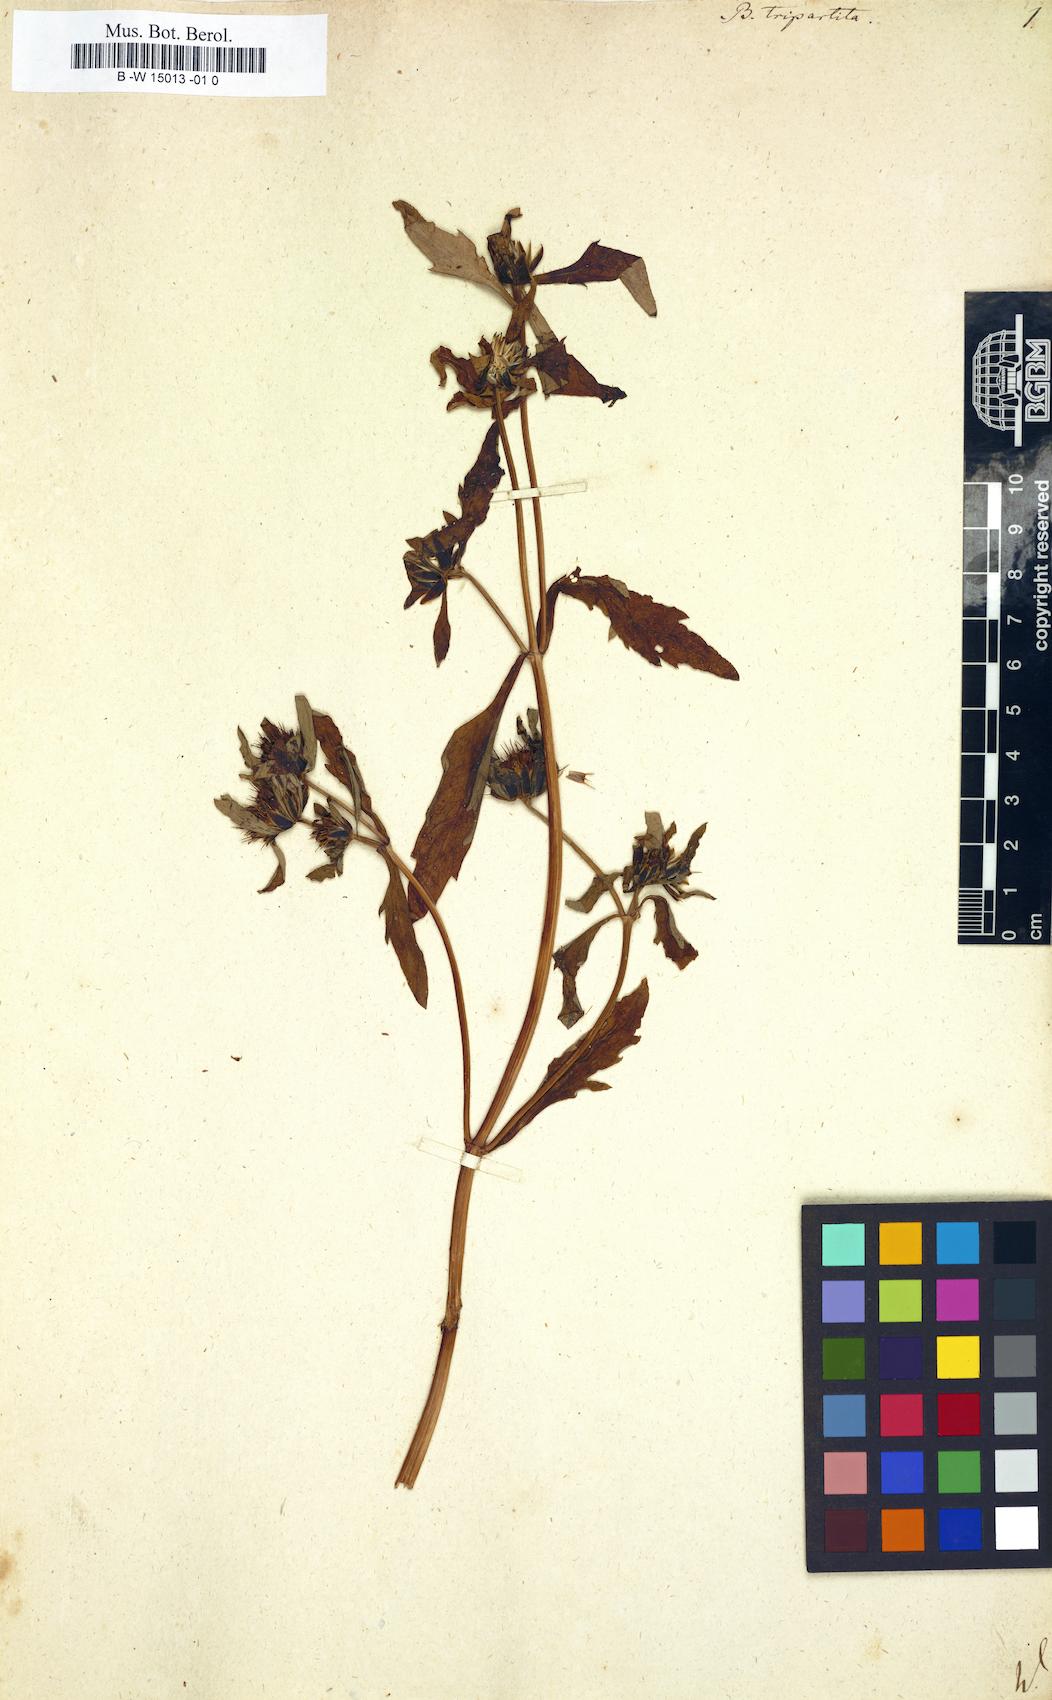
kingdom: Plantae
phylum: Tracheophyta
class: Magnoliopsida
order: Asterales
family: Asteraceae
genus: Bidens
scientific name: Bidens tripartita
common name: Trifid bur-marigold
